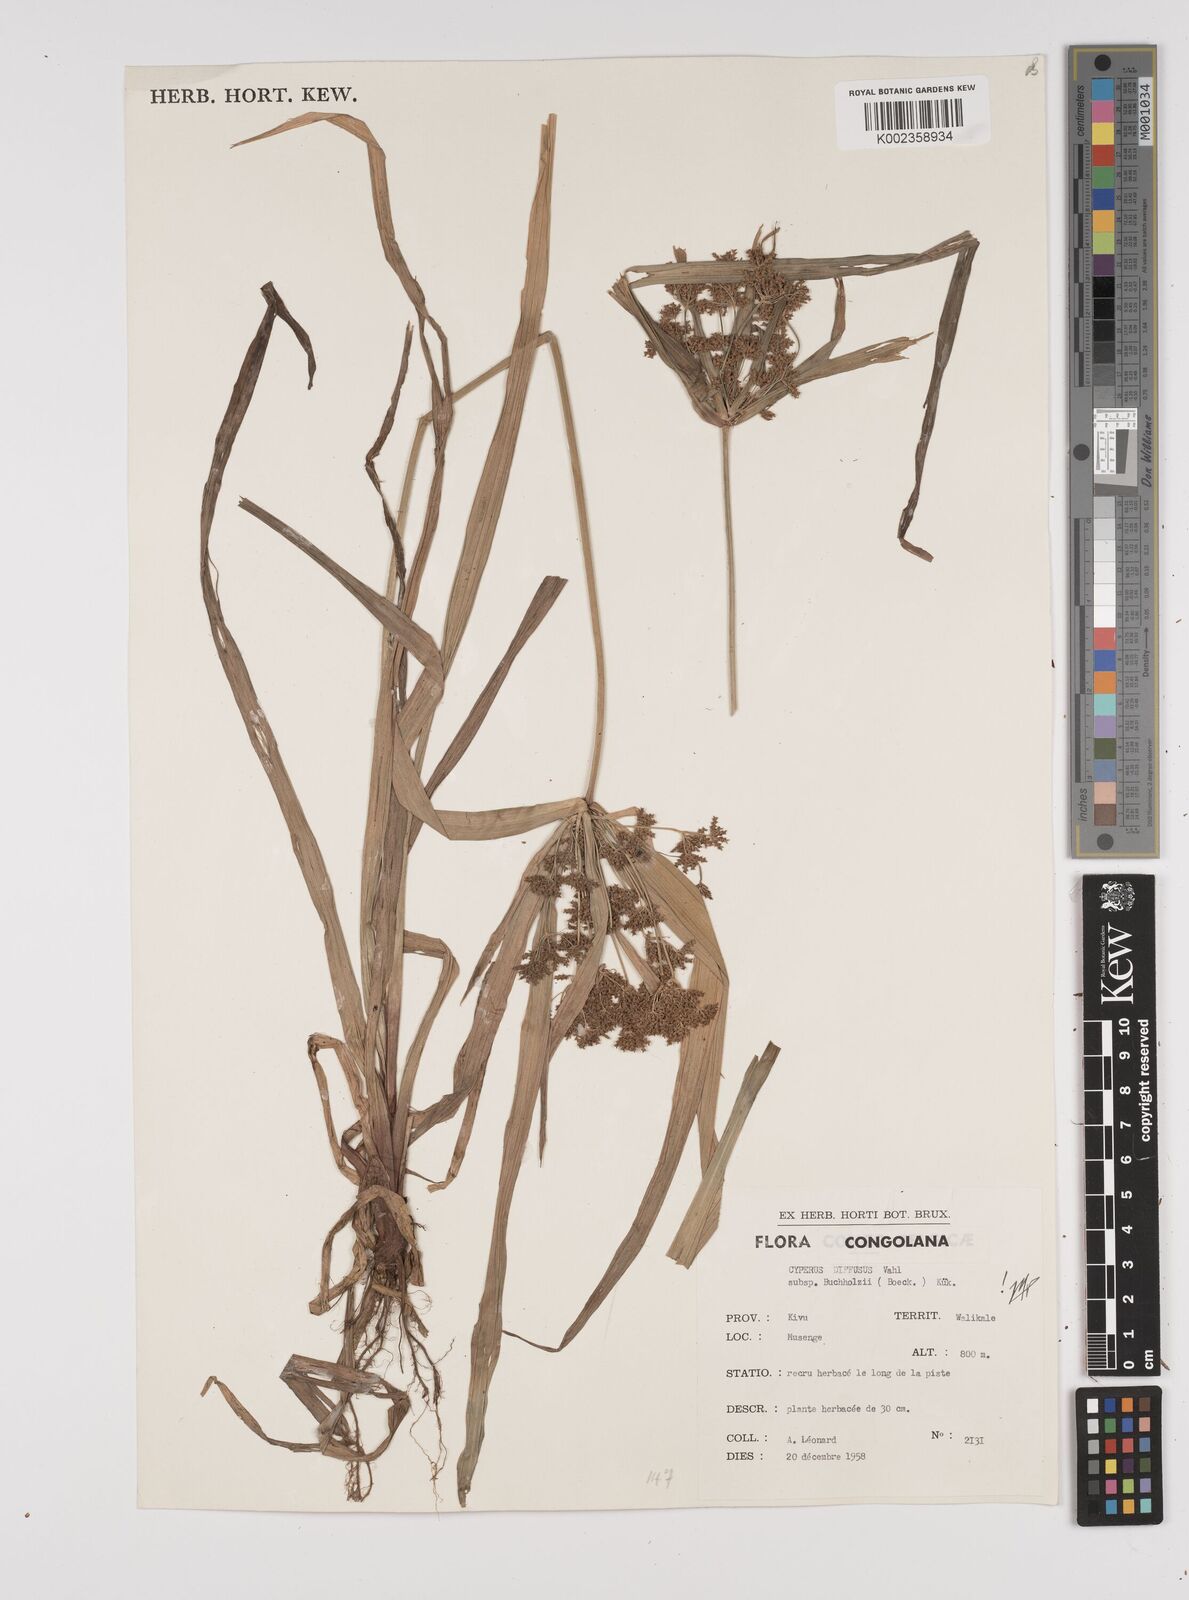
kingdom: Plantae
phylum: Tracheophyta
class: Liliopsida
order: Poales
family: Cyperaceae
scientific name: Cyperaceae
